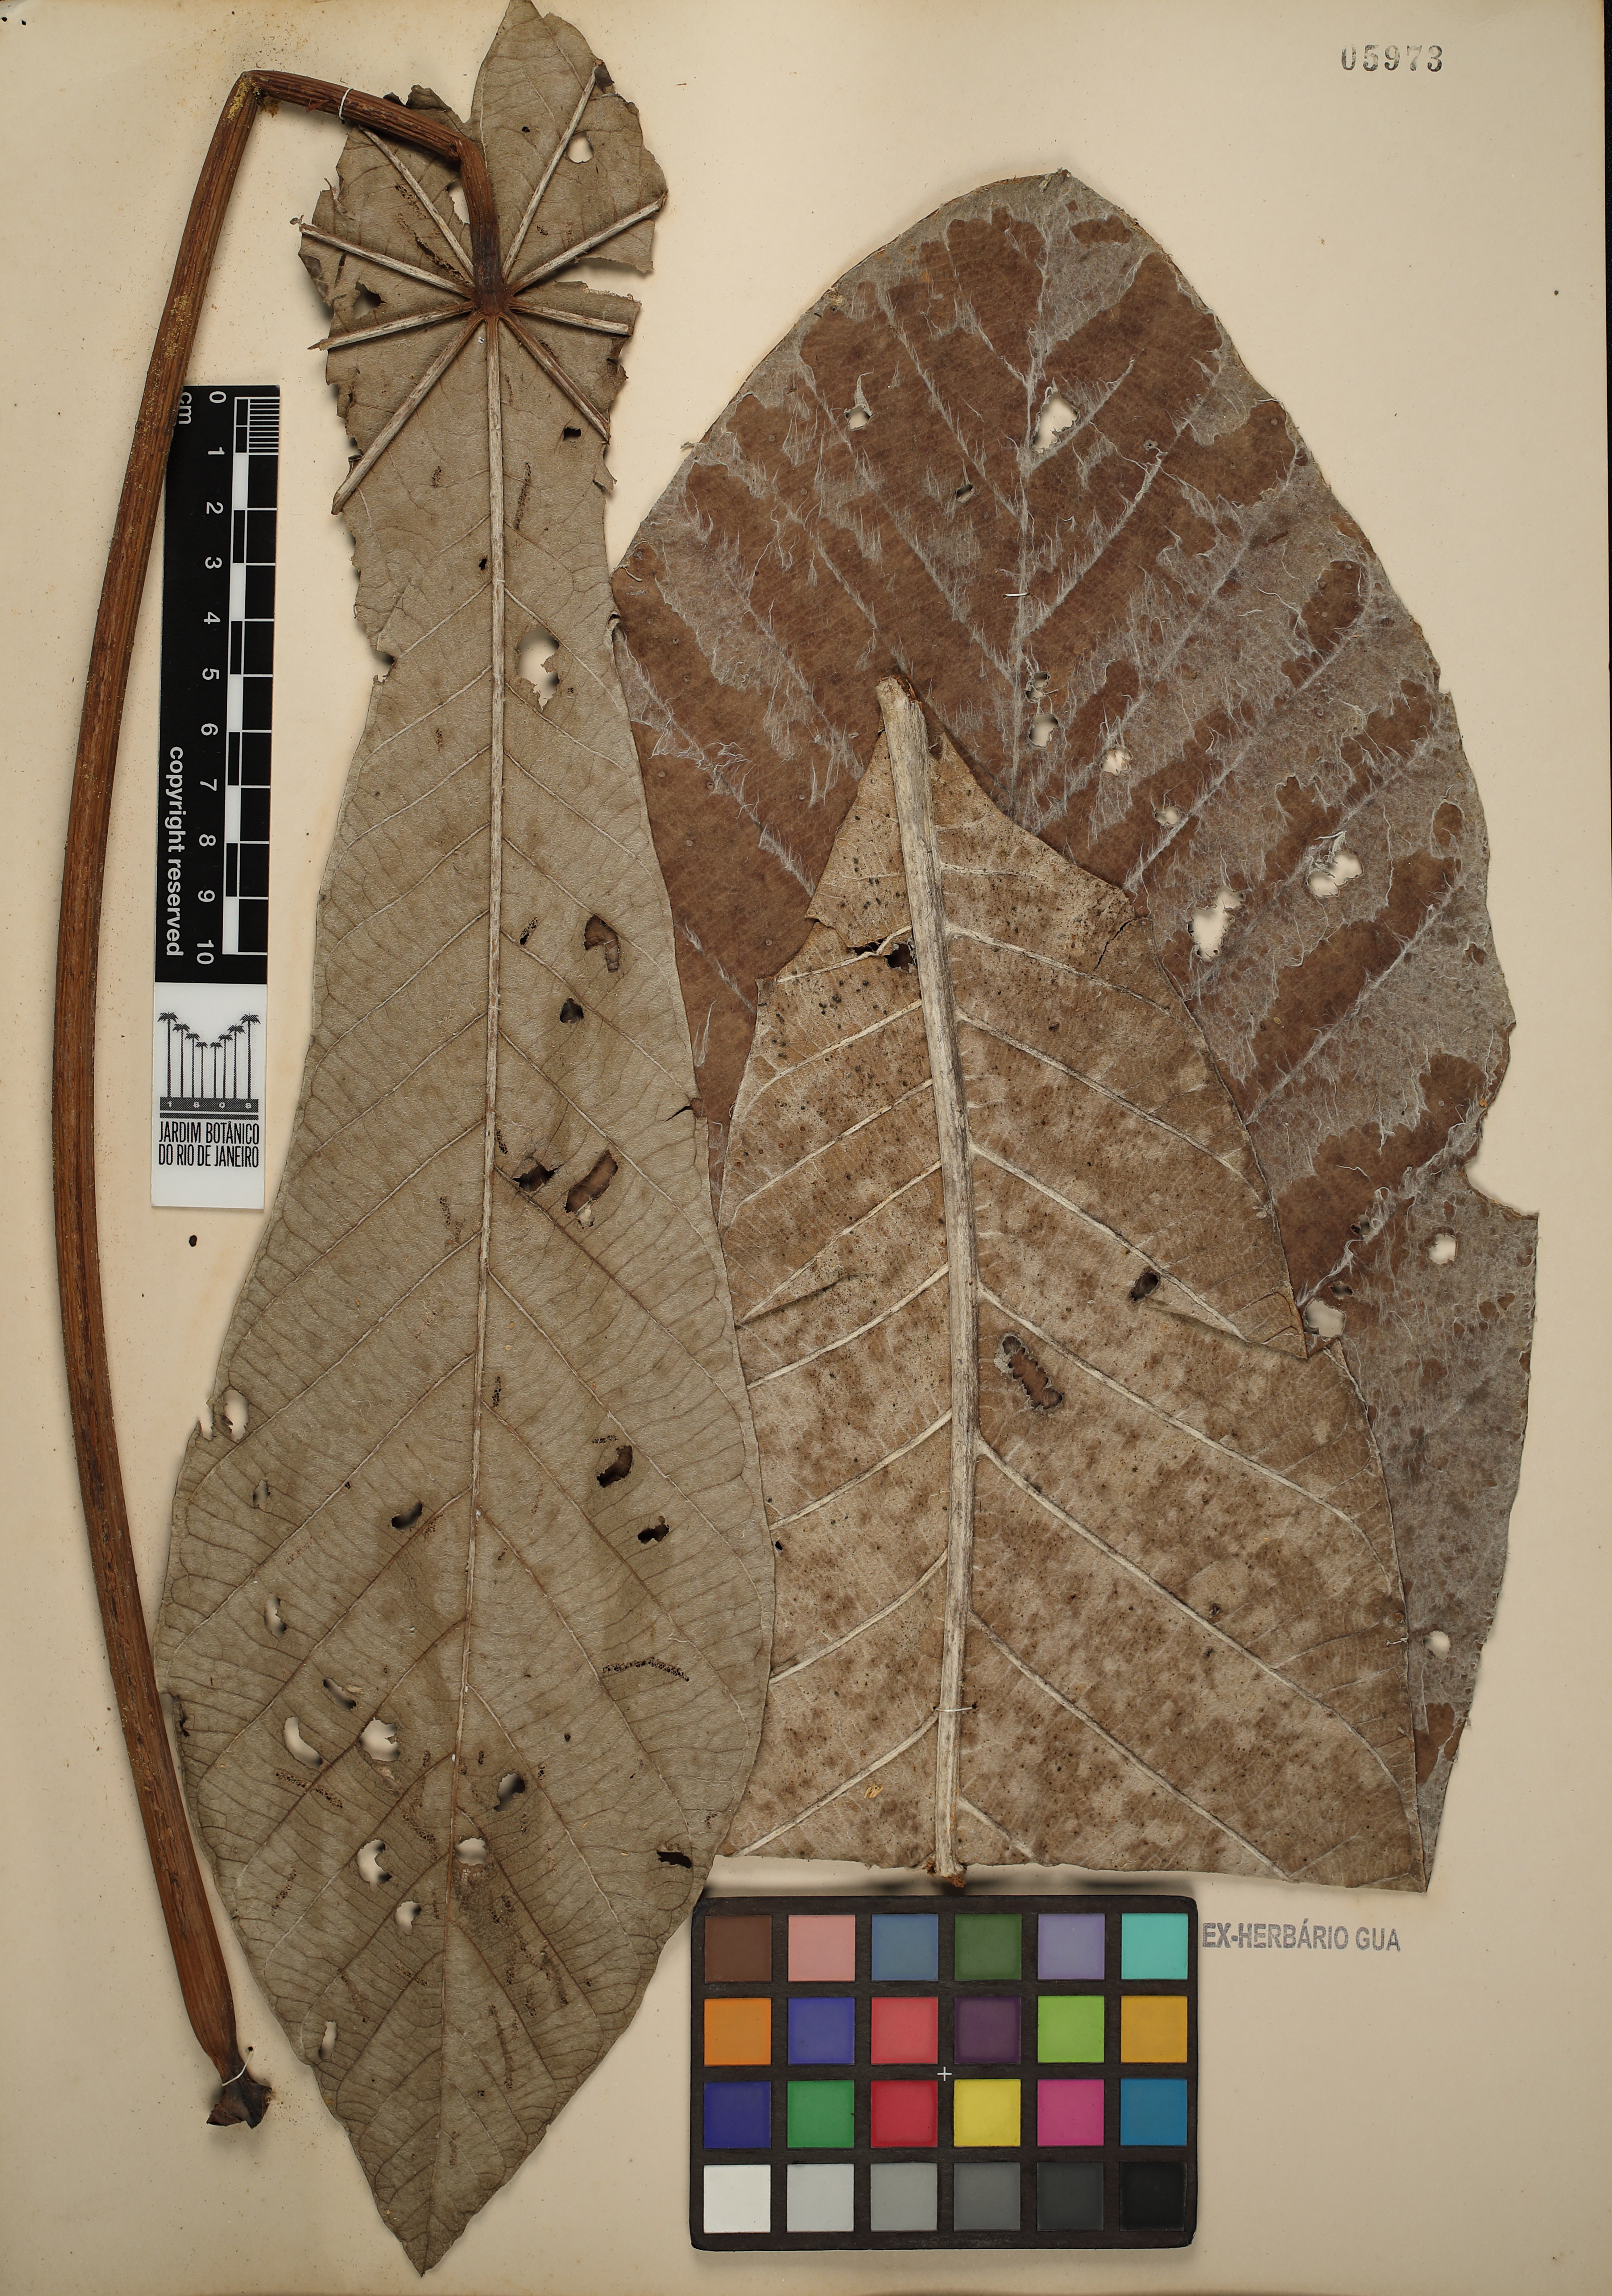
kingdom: Plantae
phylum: Tracheophyta
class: Magnoliopsida
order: Rosales
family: Urticaceae
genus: Cecropia
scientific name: Cecropia hololeuca
